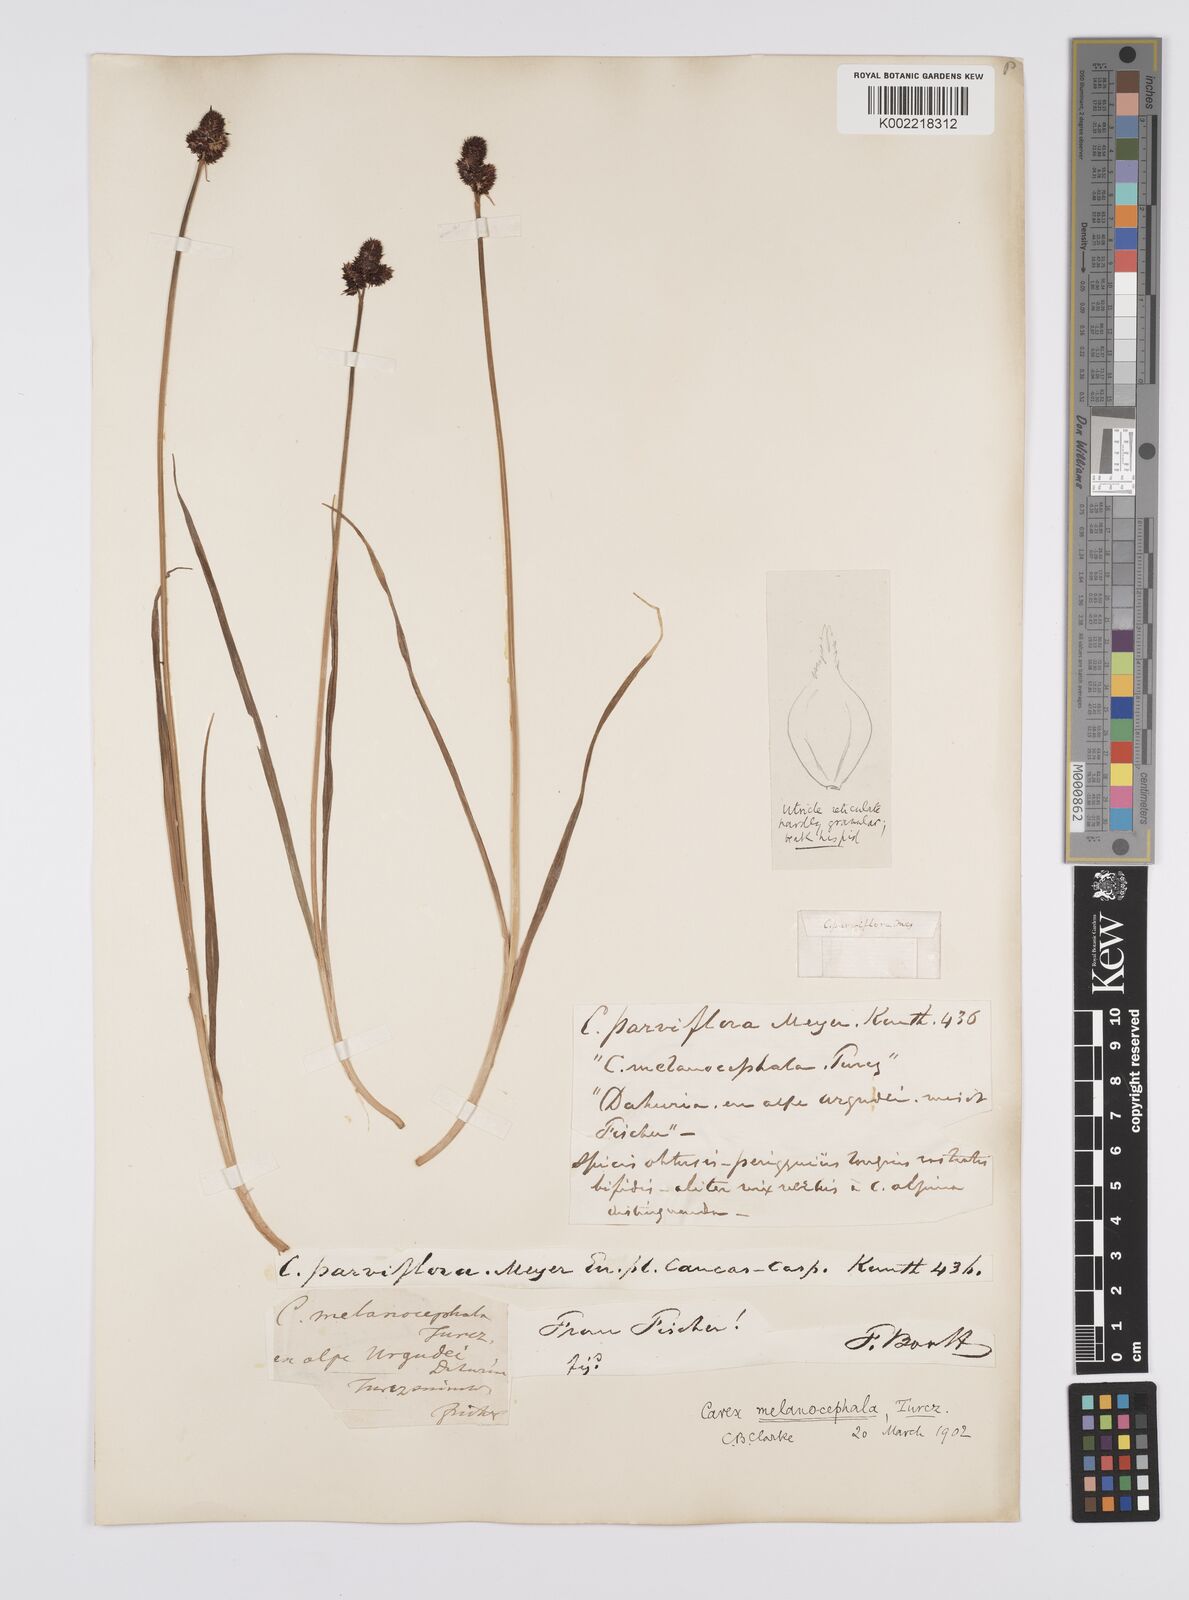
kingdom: Plantae
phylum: Tracheophyta
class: Liliopsida
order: Poales
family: Cyperaceae
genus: Carex
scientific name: Carex melanocephala
